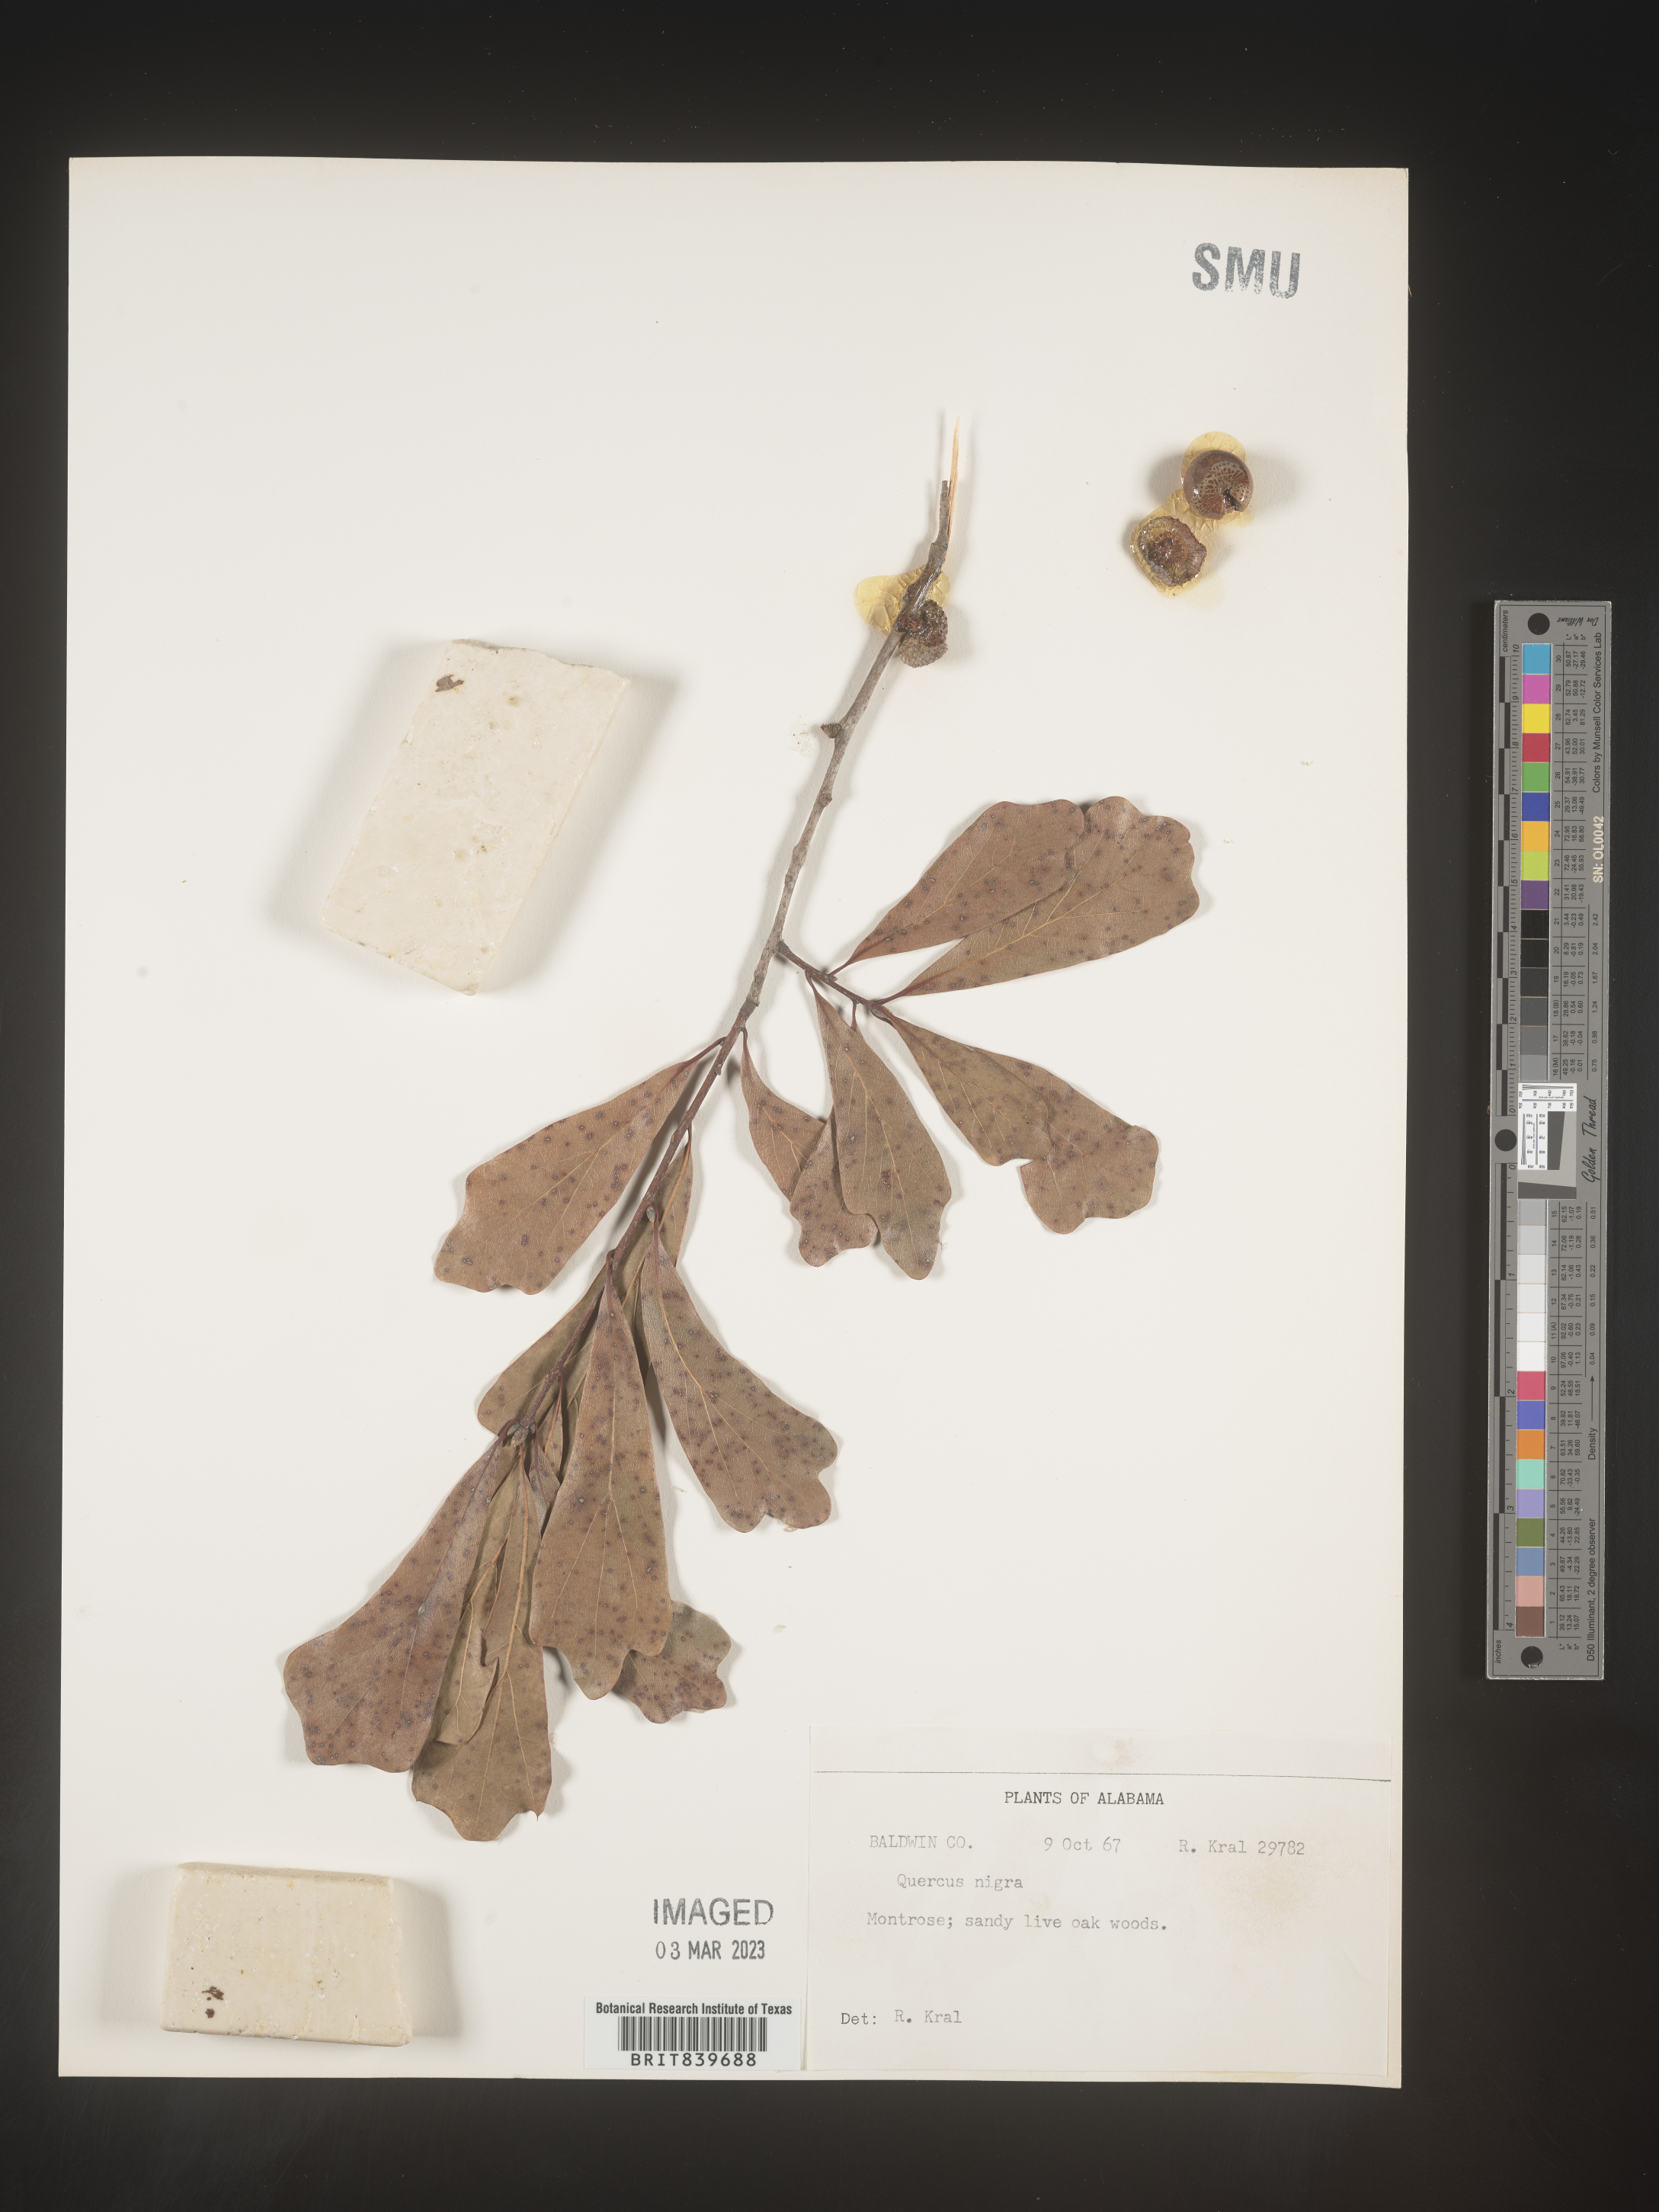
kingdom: Plantae
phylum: Tracheophyta
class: Magnoliopsida
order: Fagales
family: Fagaceae
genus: Quercus
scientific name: Quercus nigra
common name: Water oak
